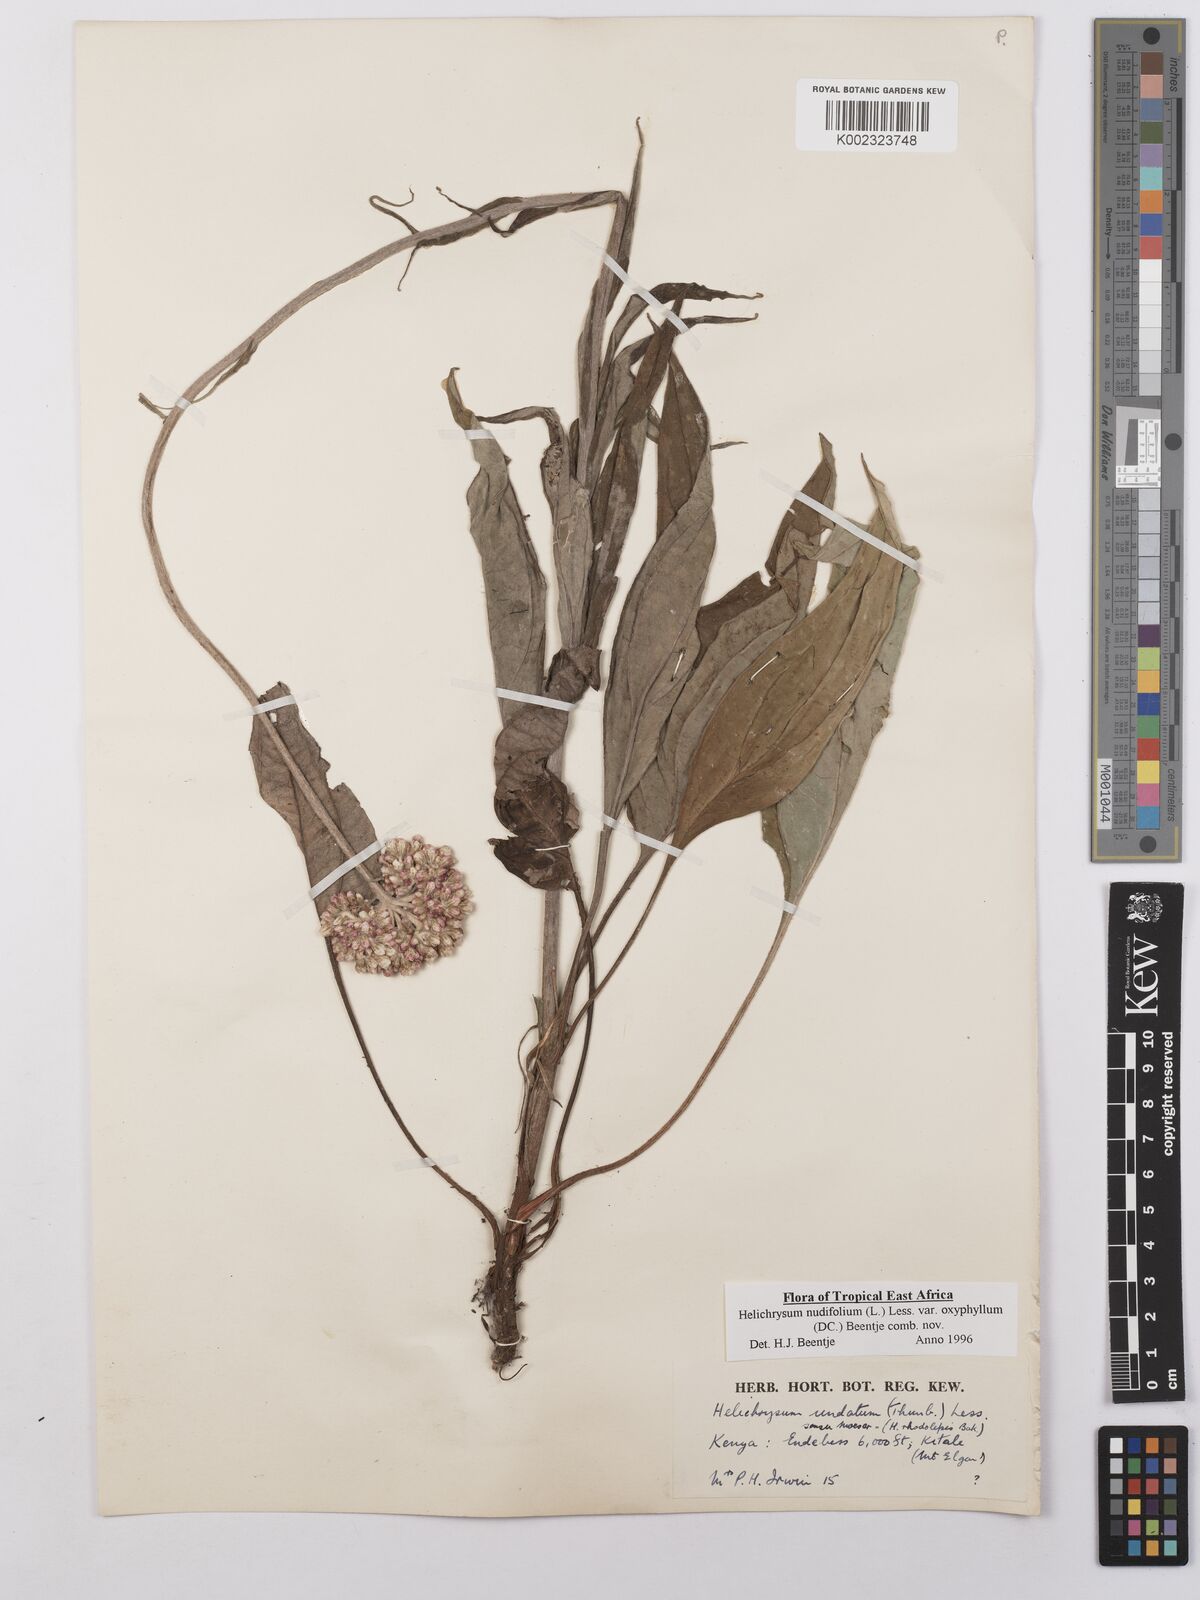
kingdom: Plantae
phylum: Tracheophyta
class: Magnoliopsida
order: Asterales
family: Asteraceae
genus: Helichrysum
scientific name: Helichrysum nudifolium
